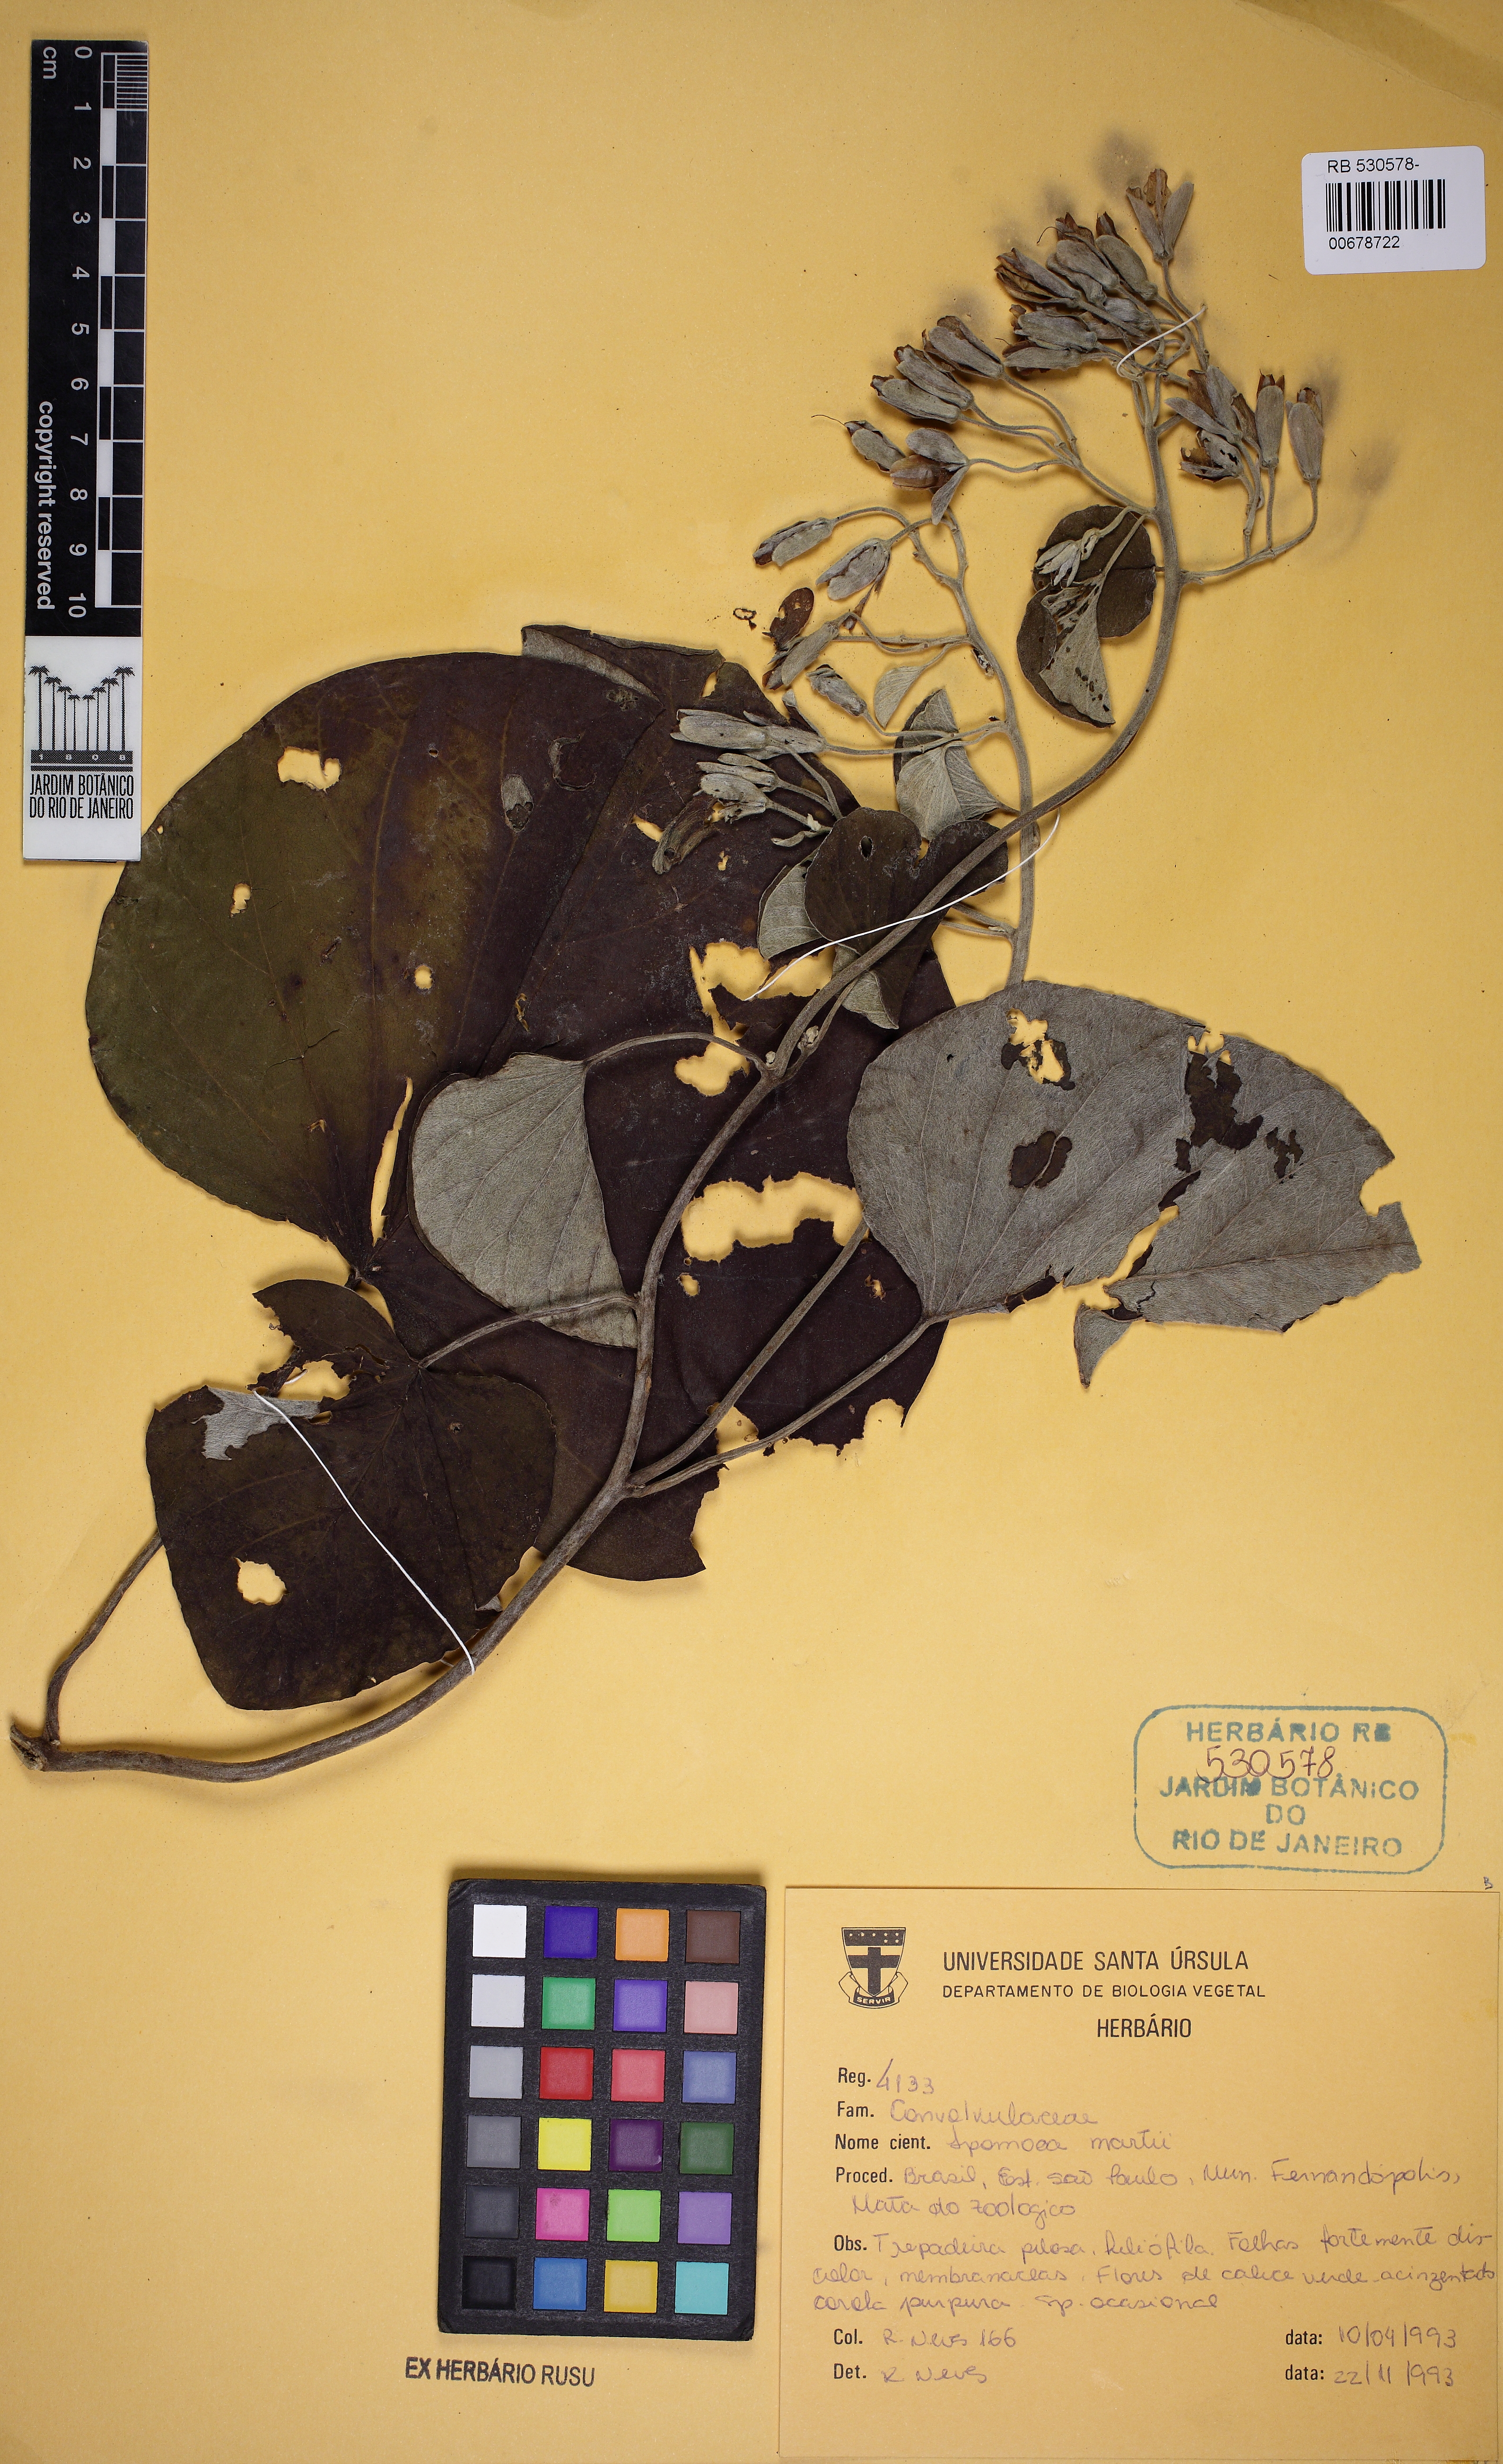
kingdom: Plantae
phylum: Tracheophyta
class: Magnoliopsida
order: Solanales
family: Convolvulaceae
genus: Ipomoea
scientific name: Ipomoea sericosepala
